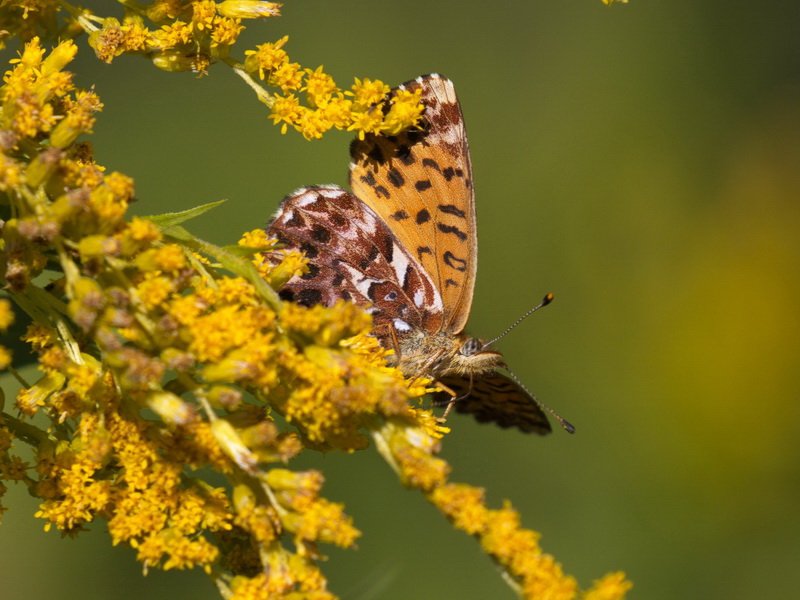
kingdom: Animalia
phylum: Arthropoda
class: Insecta
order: Lepidoptera
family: Nymphalidae
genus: Boloria
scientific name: Boloria chariclea
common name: Arctic Fritillary
